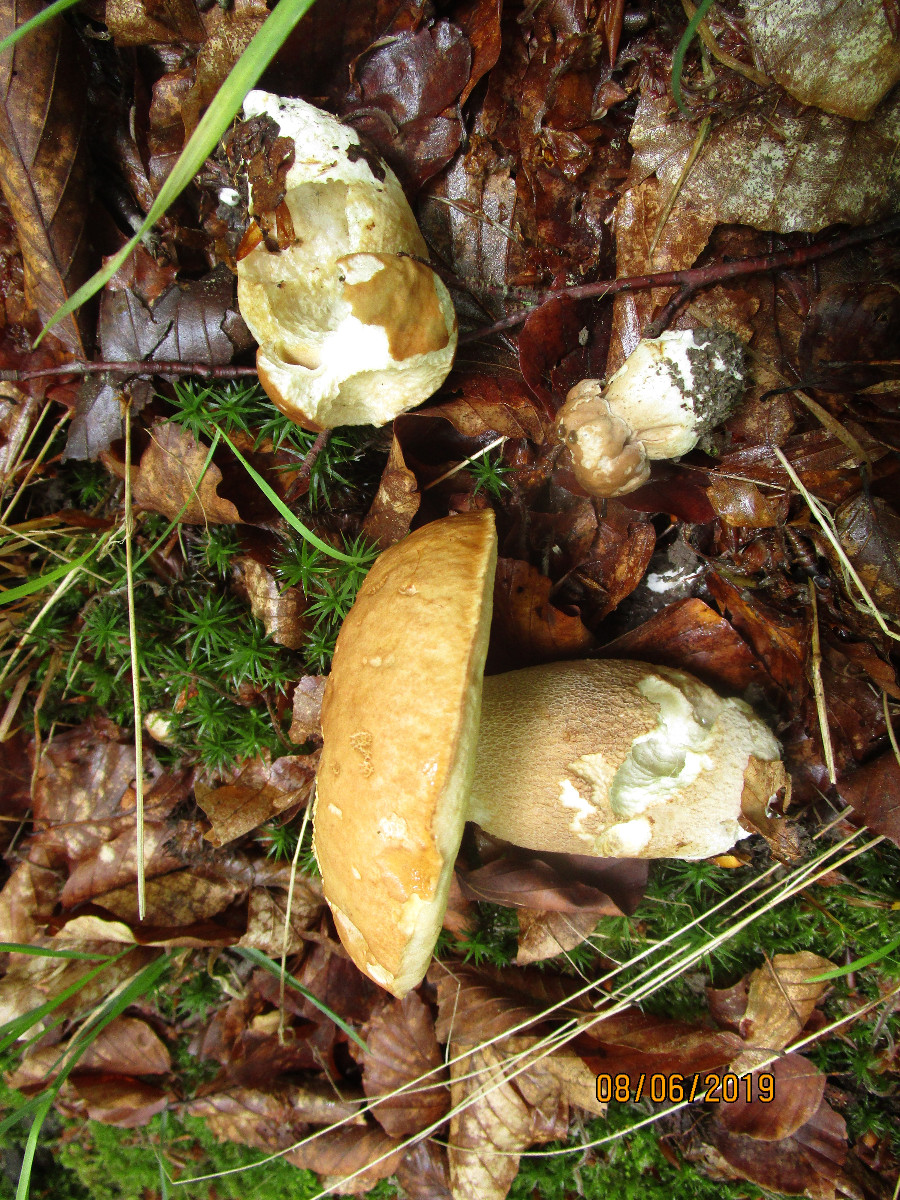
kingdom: Fungi
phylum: Basidiomycota
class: Agaricomycetes
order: Boletales
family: Boletaceae
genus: Boletus
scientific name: Boletus reticulatus
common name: sommer-rørhat
